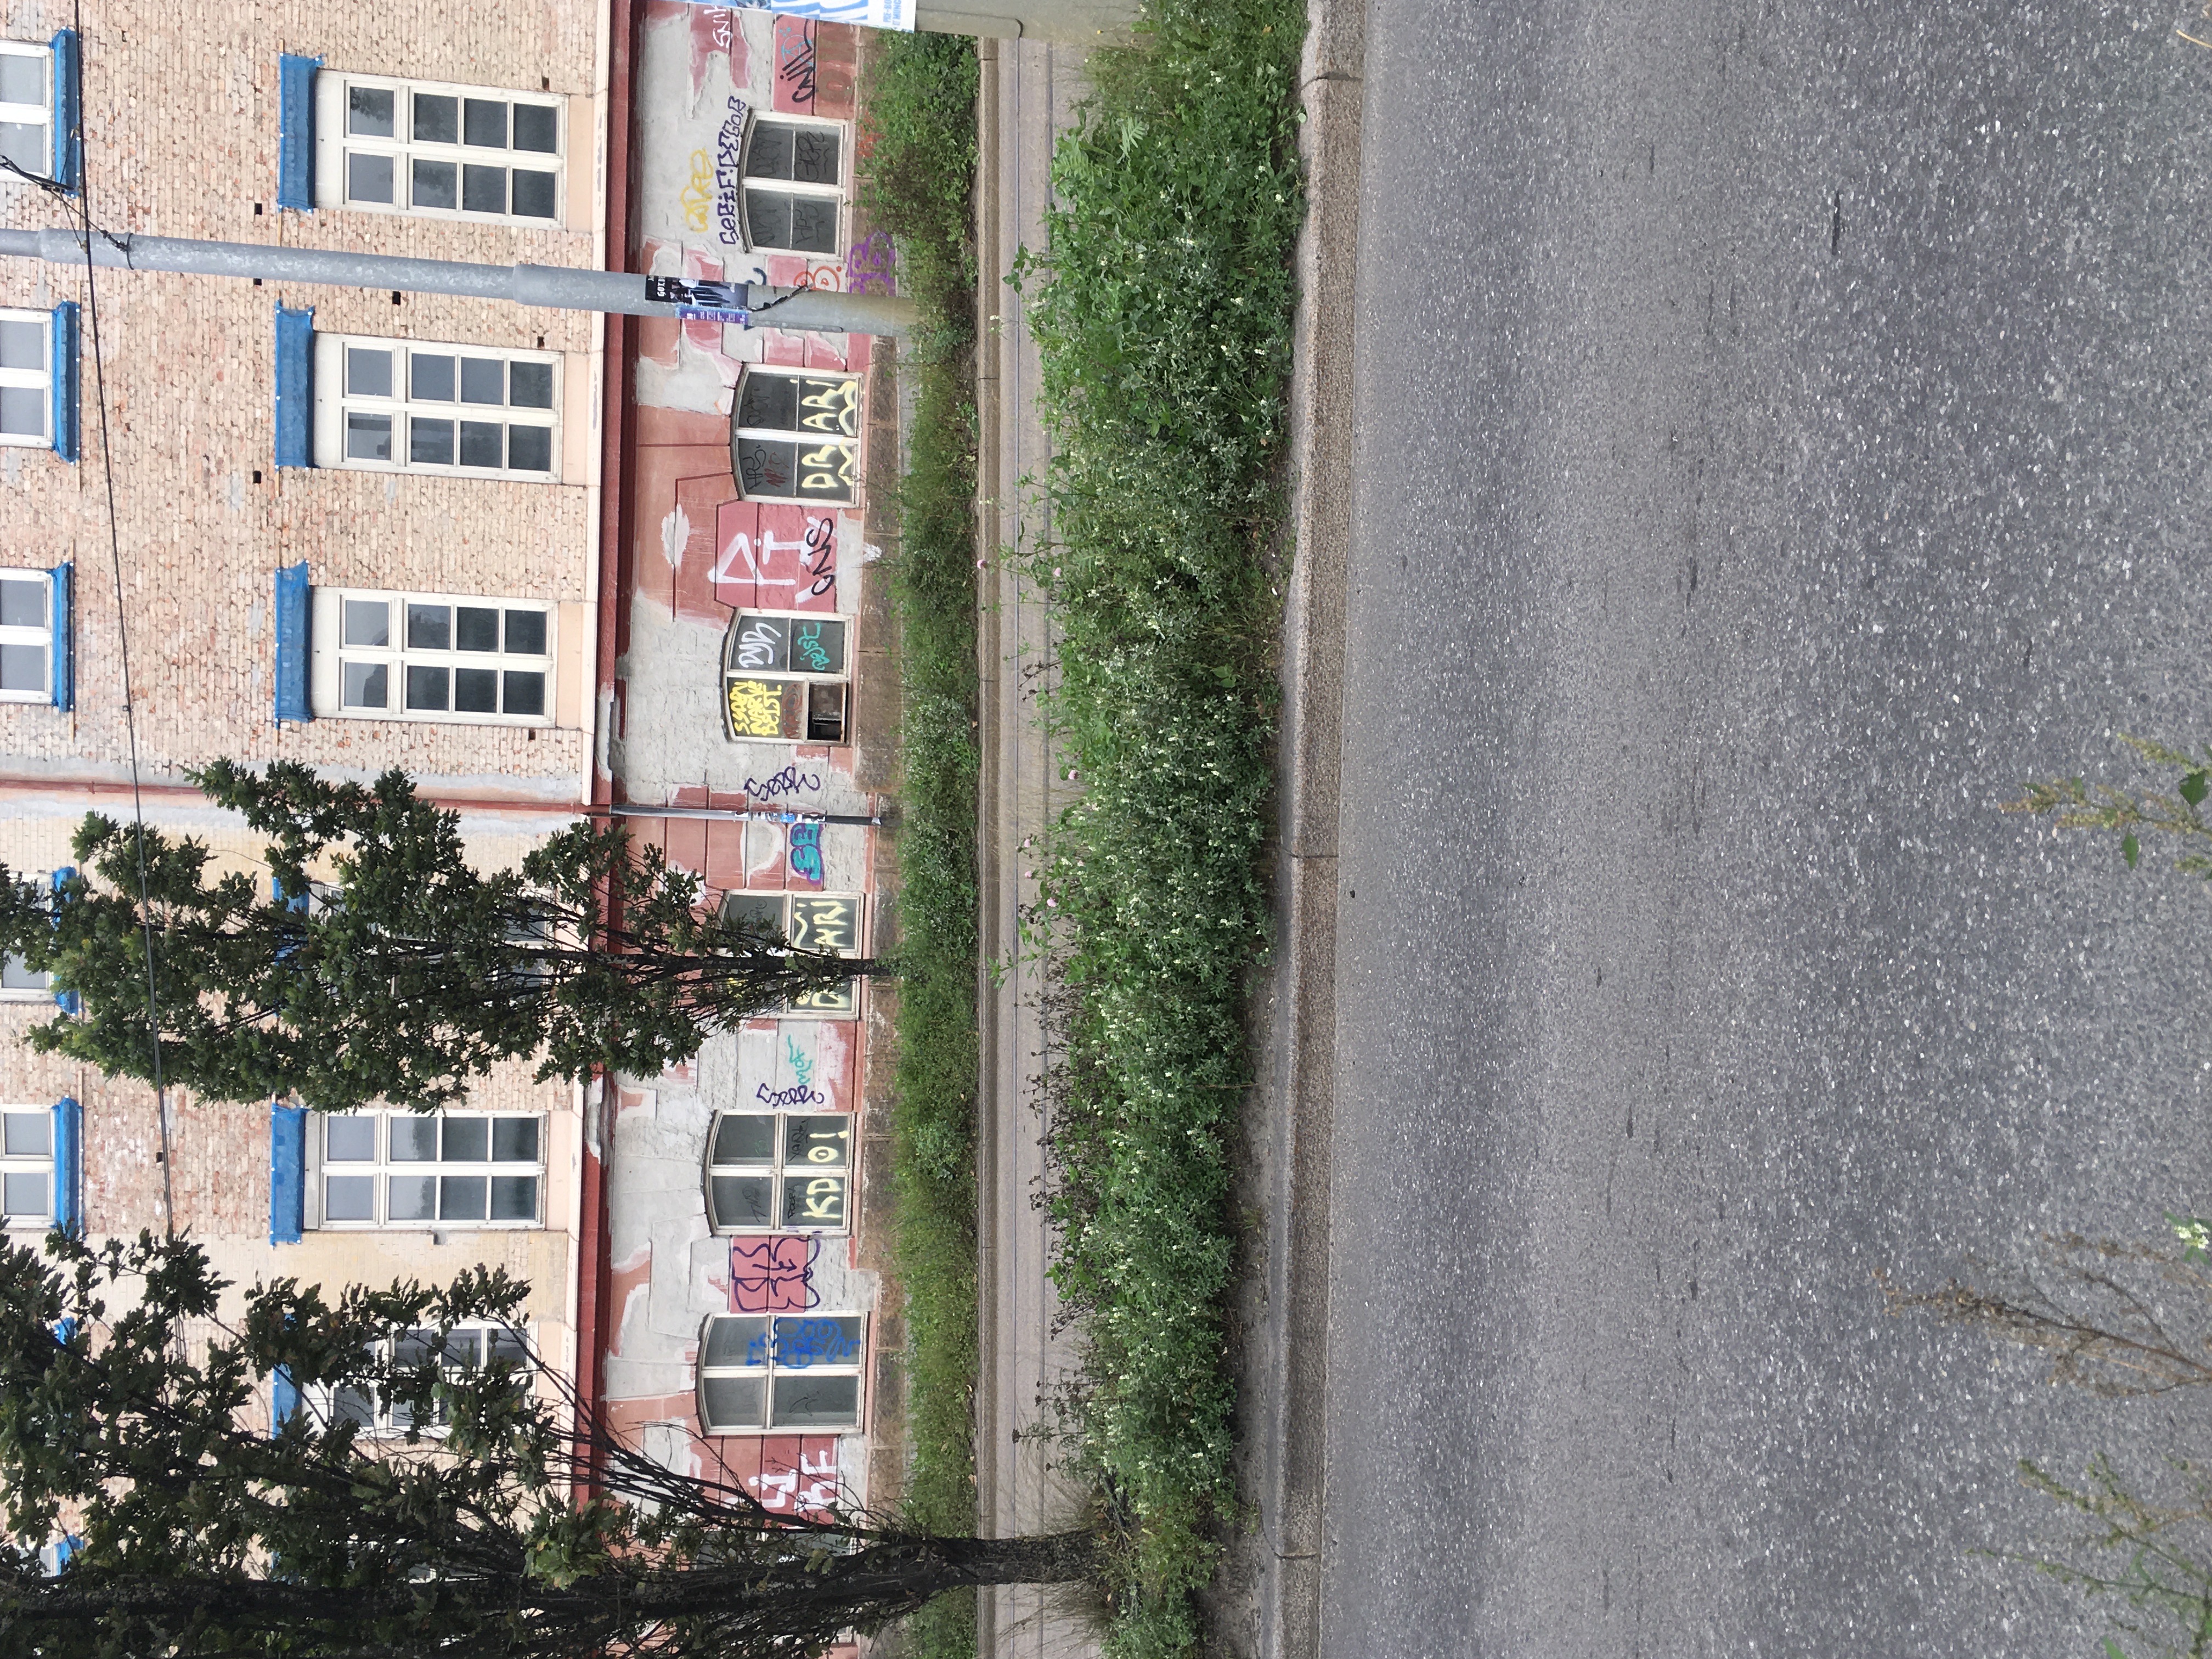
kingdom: Plantae
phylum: Tracheophyta
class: Magnoliopsida
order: Fabales
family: Fabaceae
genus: Melilotus
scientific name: Melilotus albus
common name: hvitsteinkløver
